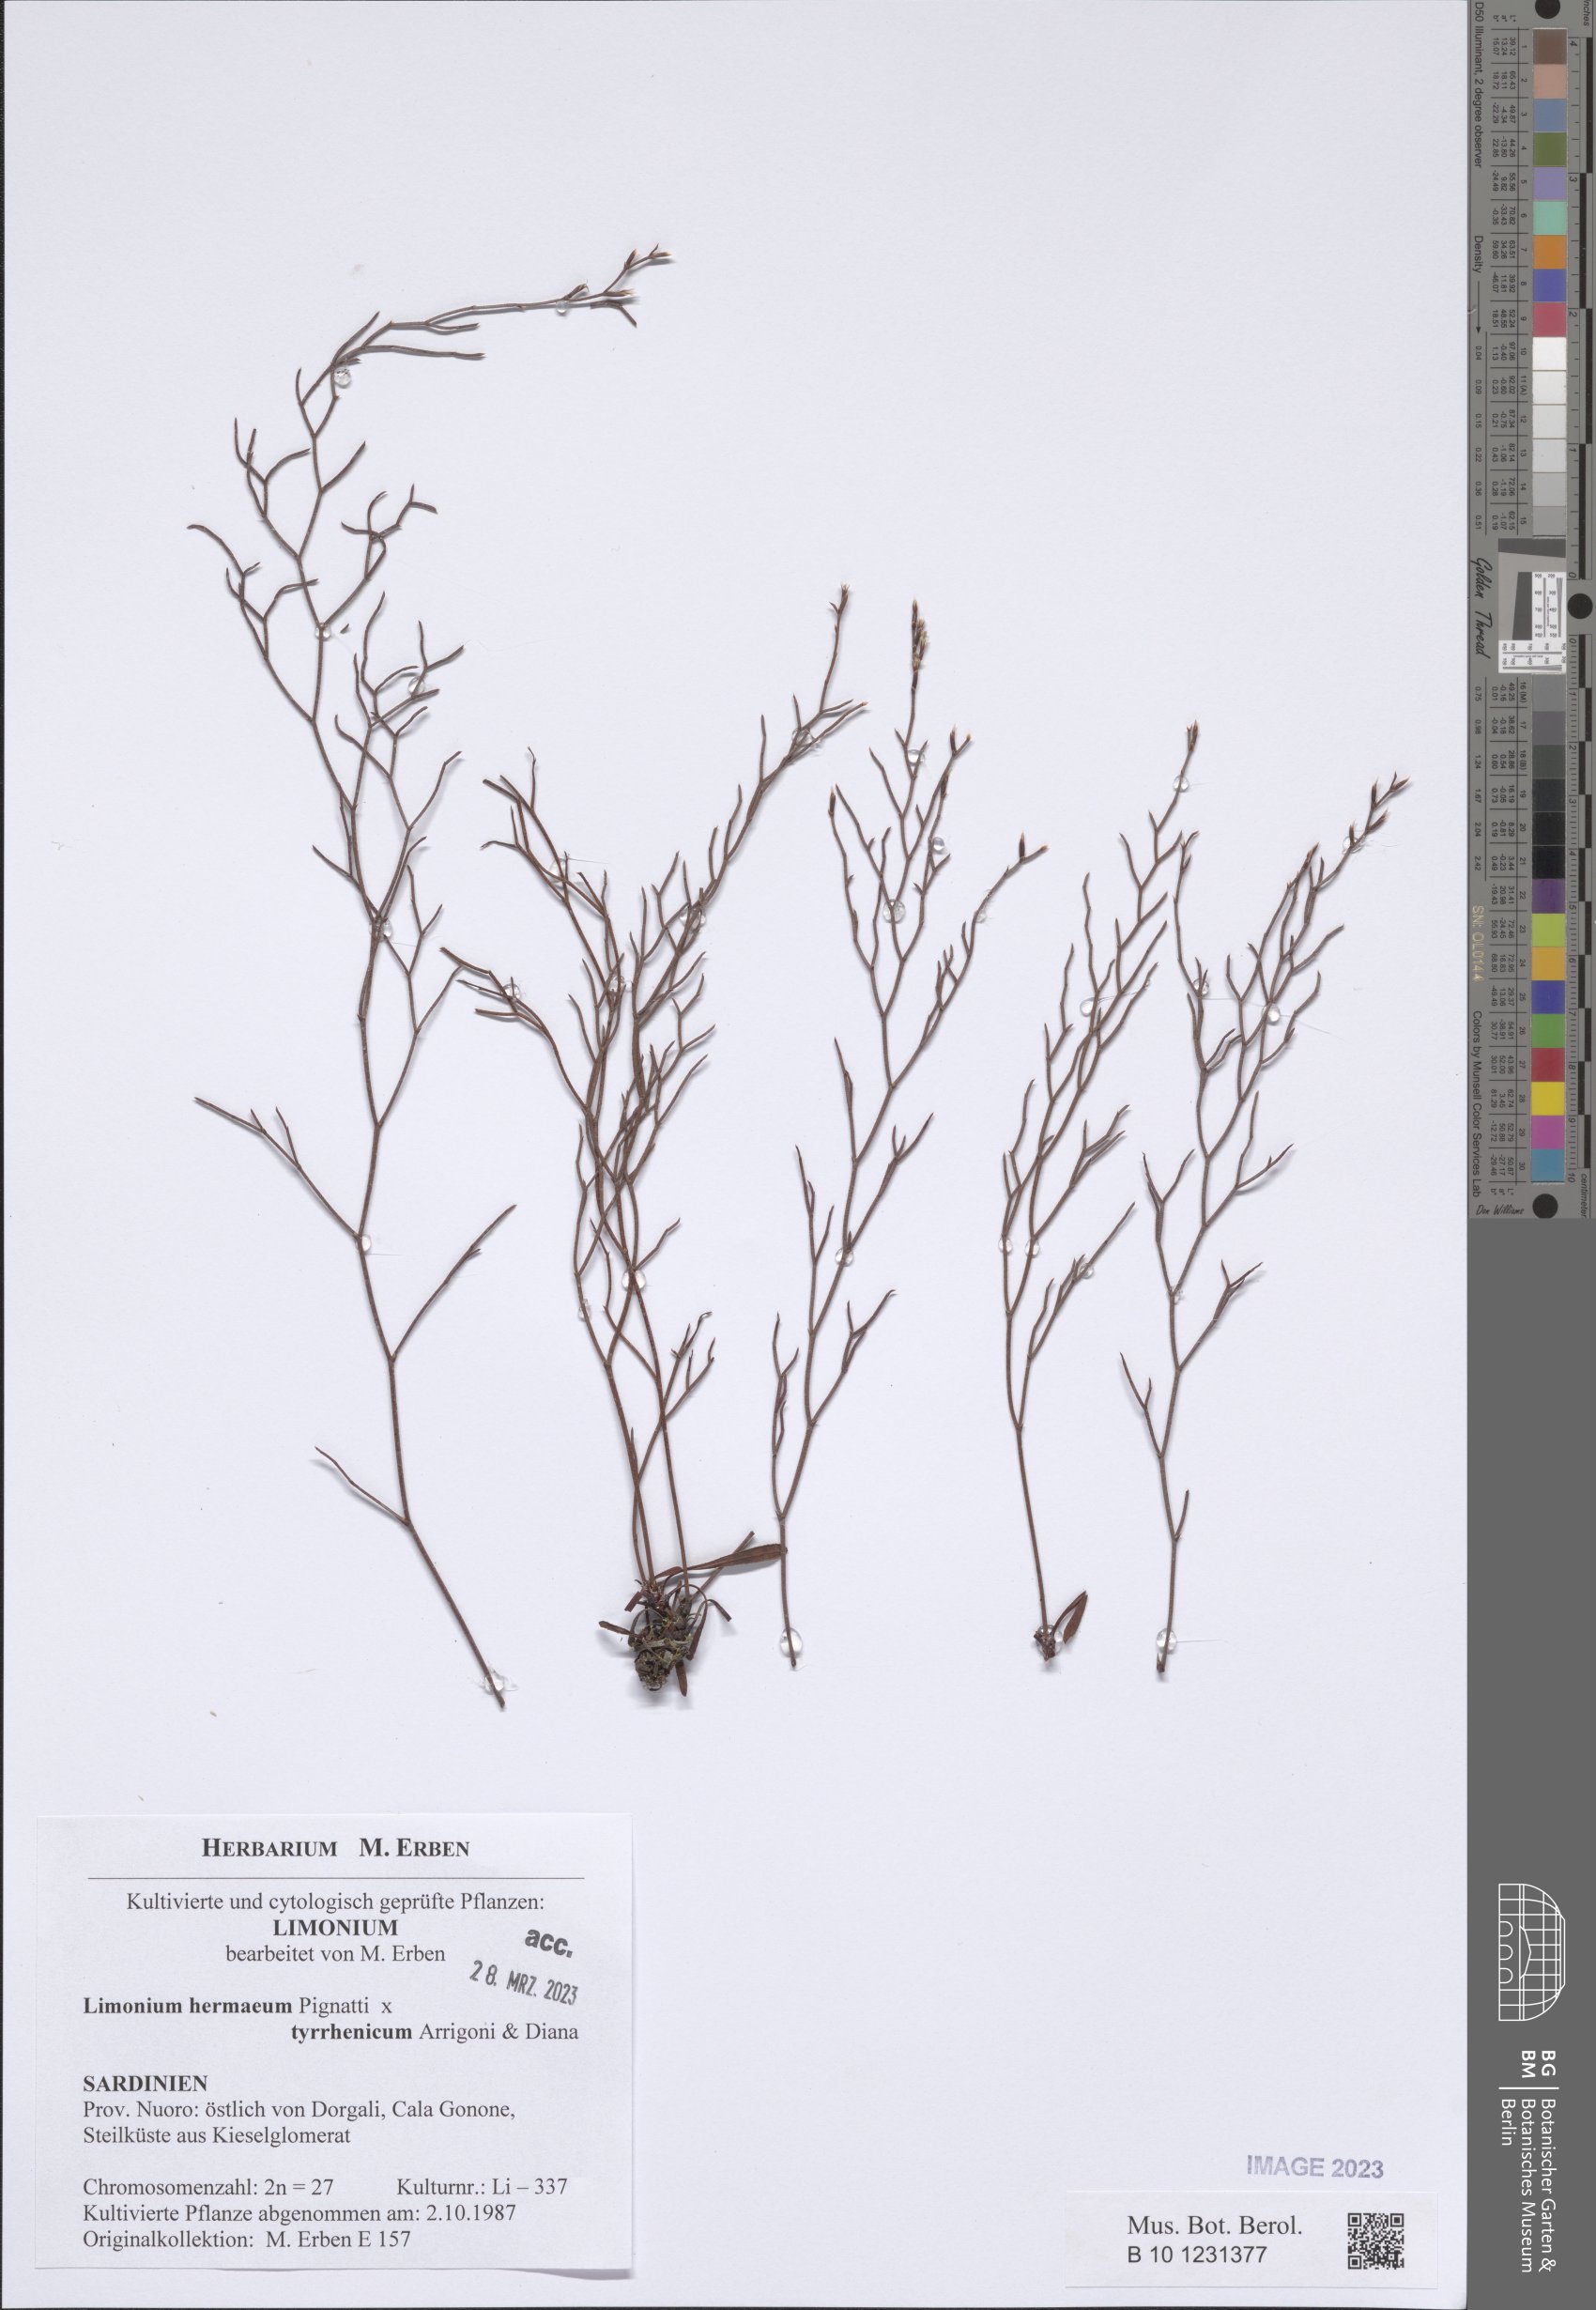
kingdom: Plantae
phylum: Tracheophyta
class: Magnoliopsida
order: Caryophyllales
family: Plumbaginaceae
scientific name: Plumbaginaceae
